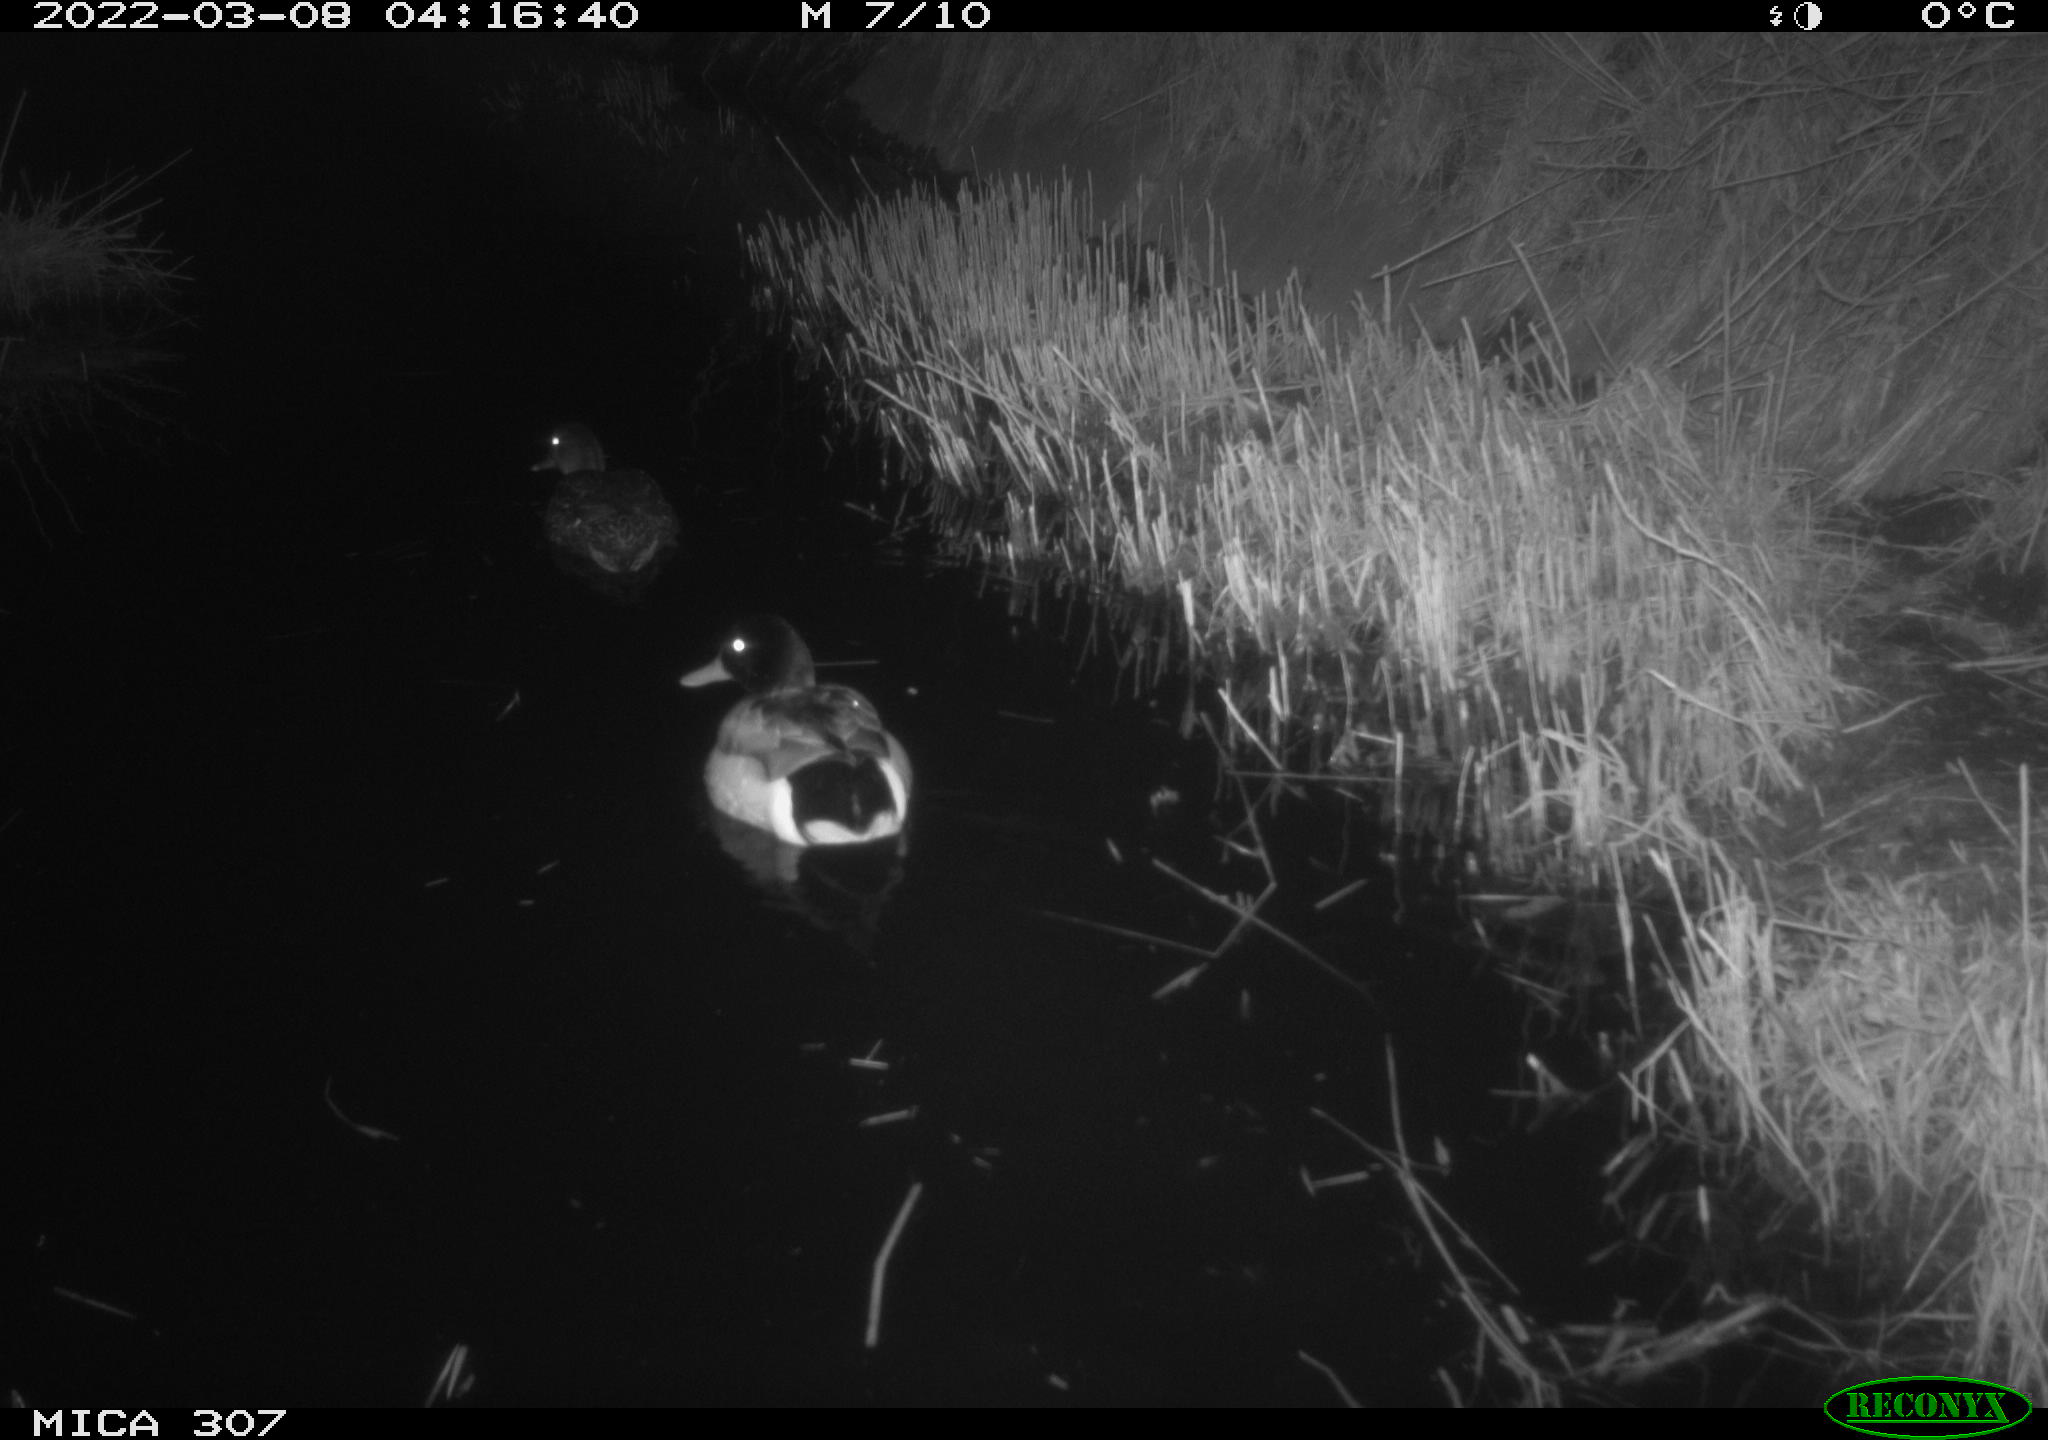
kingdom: Animalia
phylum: Chordata
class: Aves
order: Anseriformes
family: Anatidae
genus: Anas
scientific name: Anas platyrhynchos
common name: Mallard
